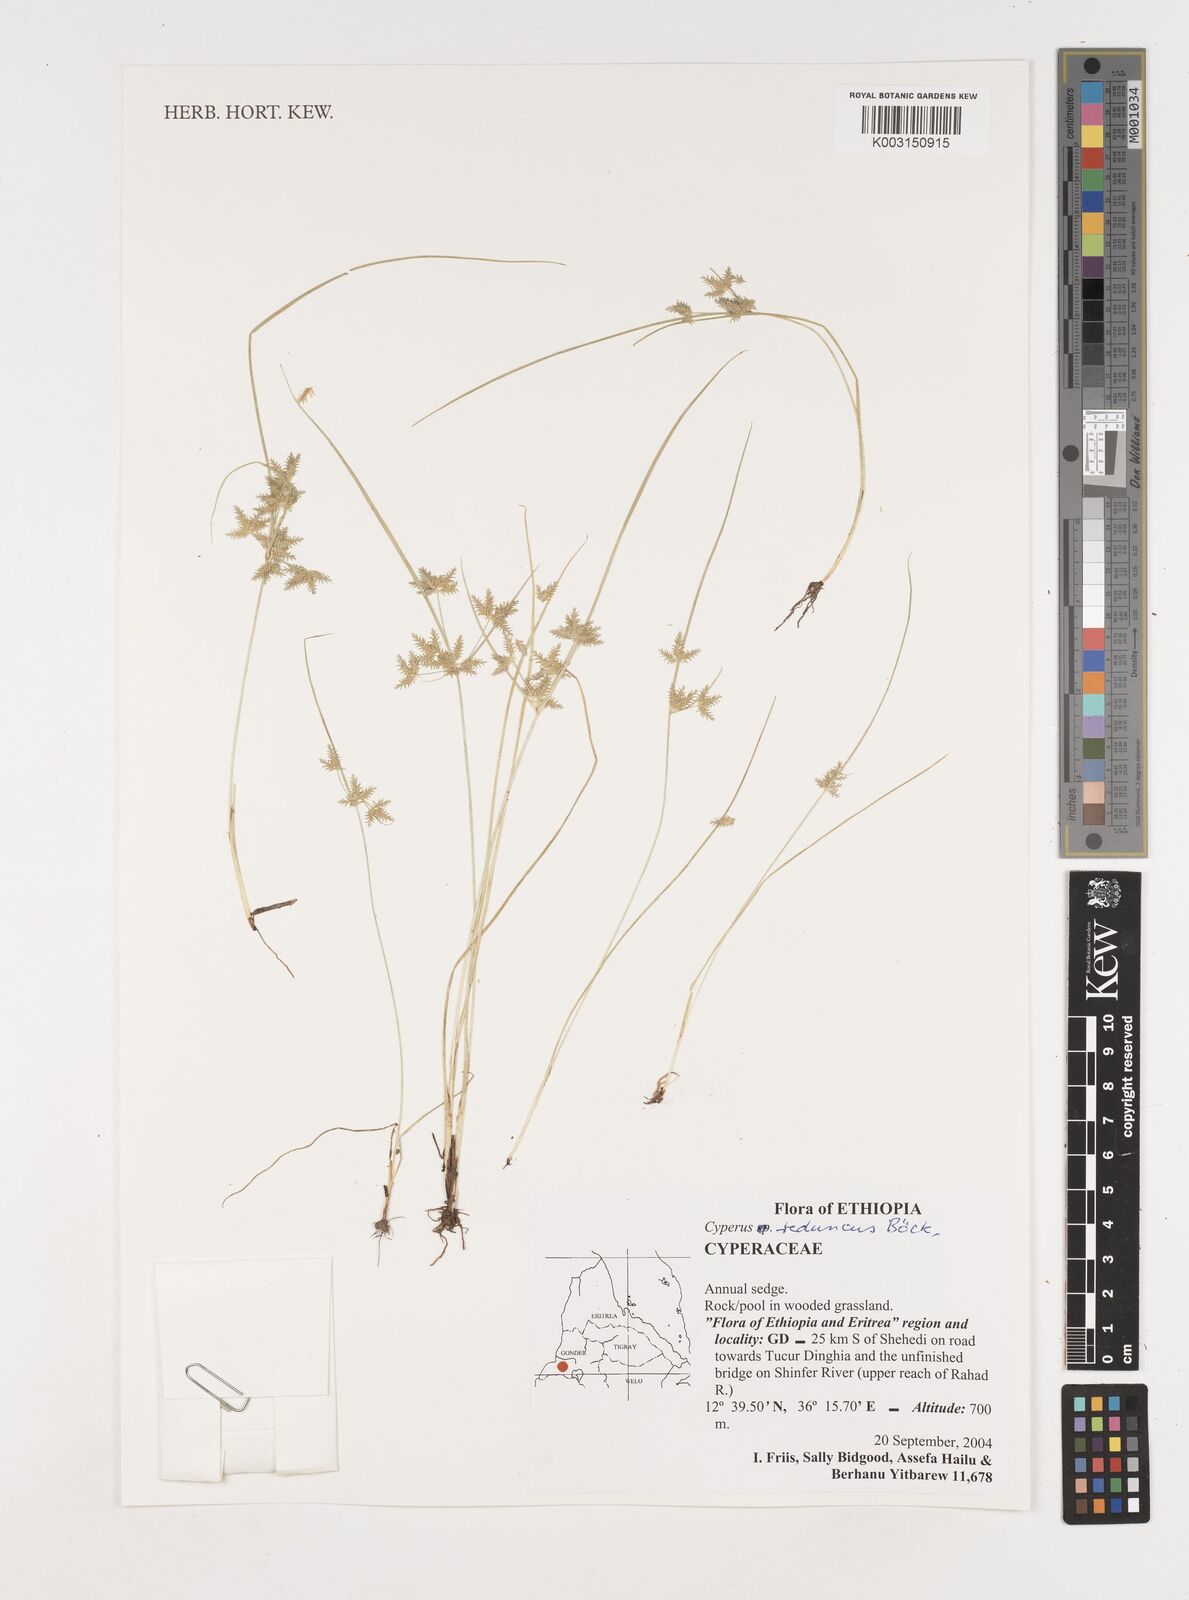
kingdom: Plantae
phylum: Tracheophyta
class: Liliopsida
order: Poales
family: Cyperaceae
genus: Cyperus
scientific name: Cyperus reduncus
